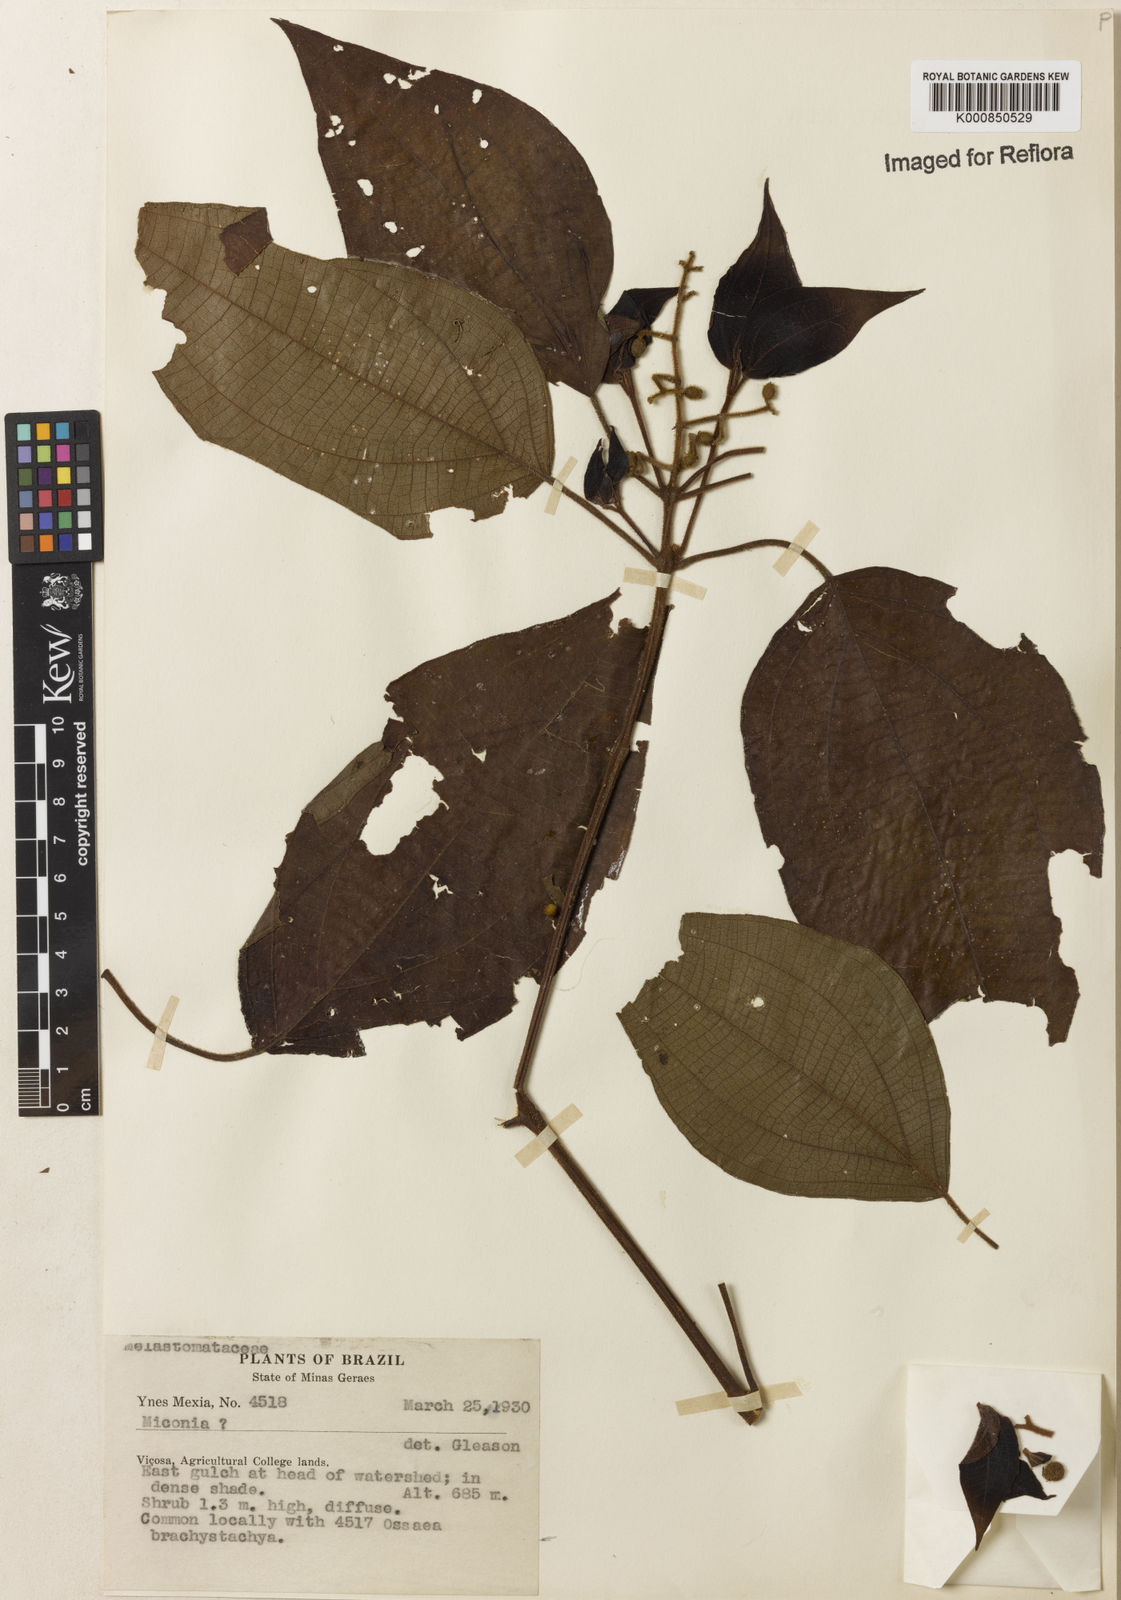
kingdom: Plantae
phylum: Tracheophyta
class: Magnoliopsida
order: Myrtales
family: Melastomataceae
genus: Miconia
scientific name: Miconia
